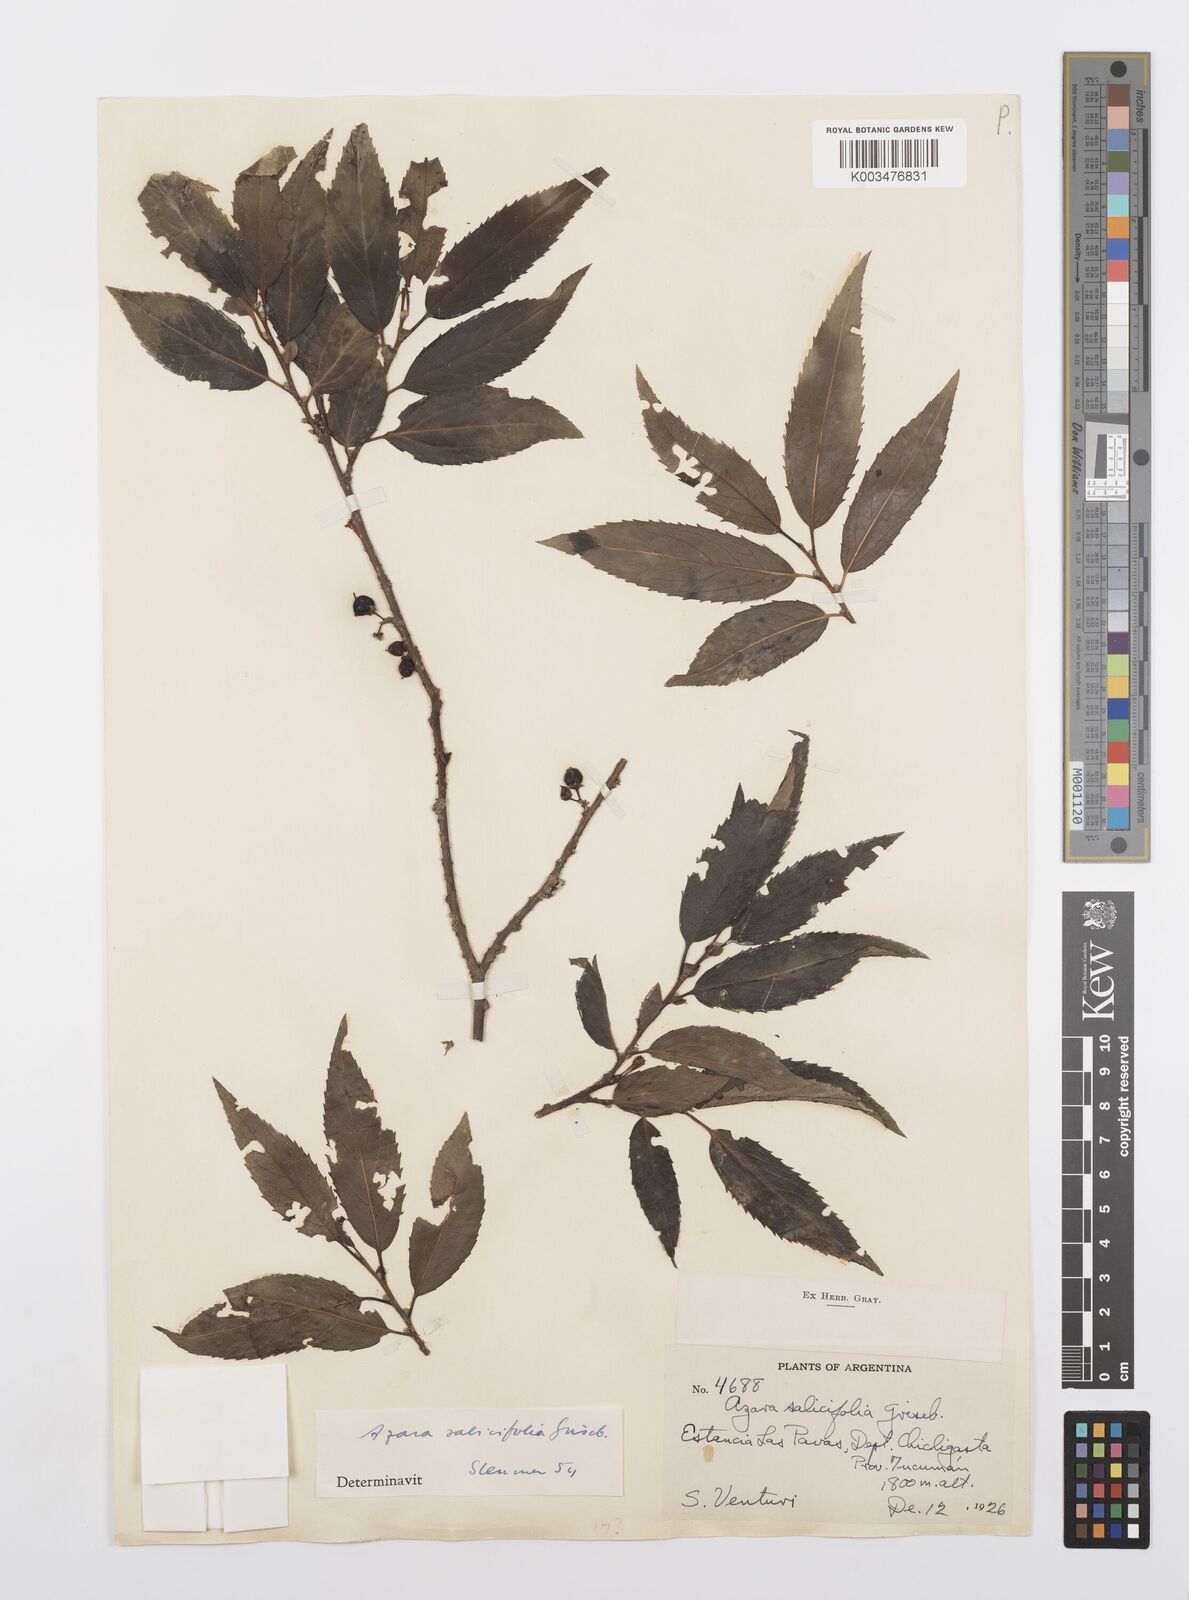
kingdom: Plantae
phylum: Tracheophyta
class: Magnoliopsida
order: Malpighiales
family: Salicaceae
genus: Azara
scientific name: Azara salicifolia
